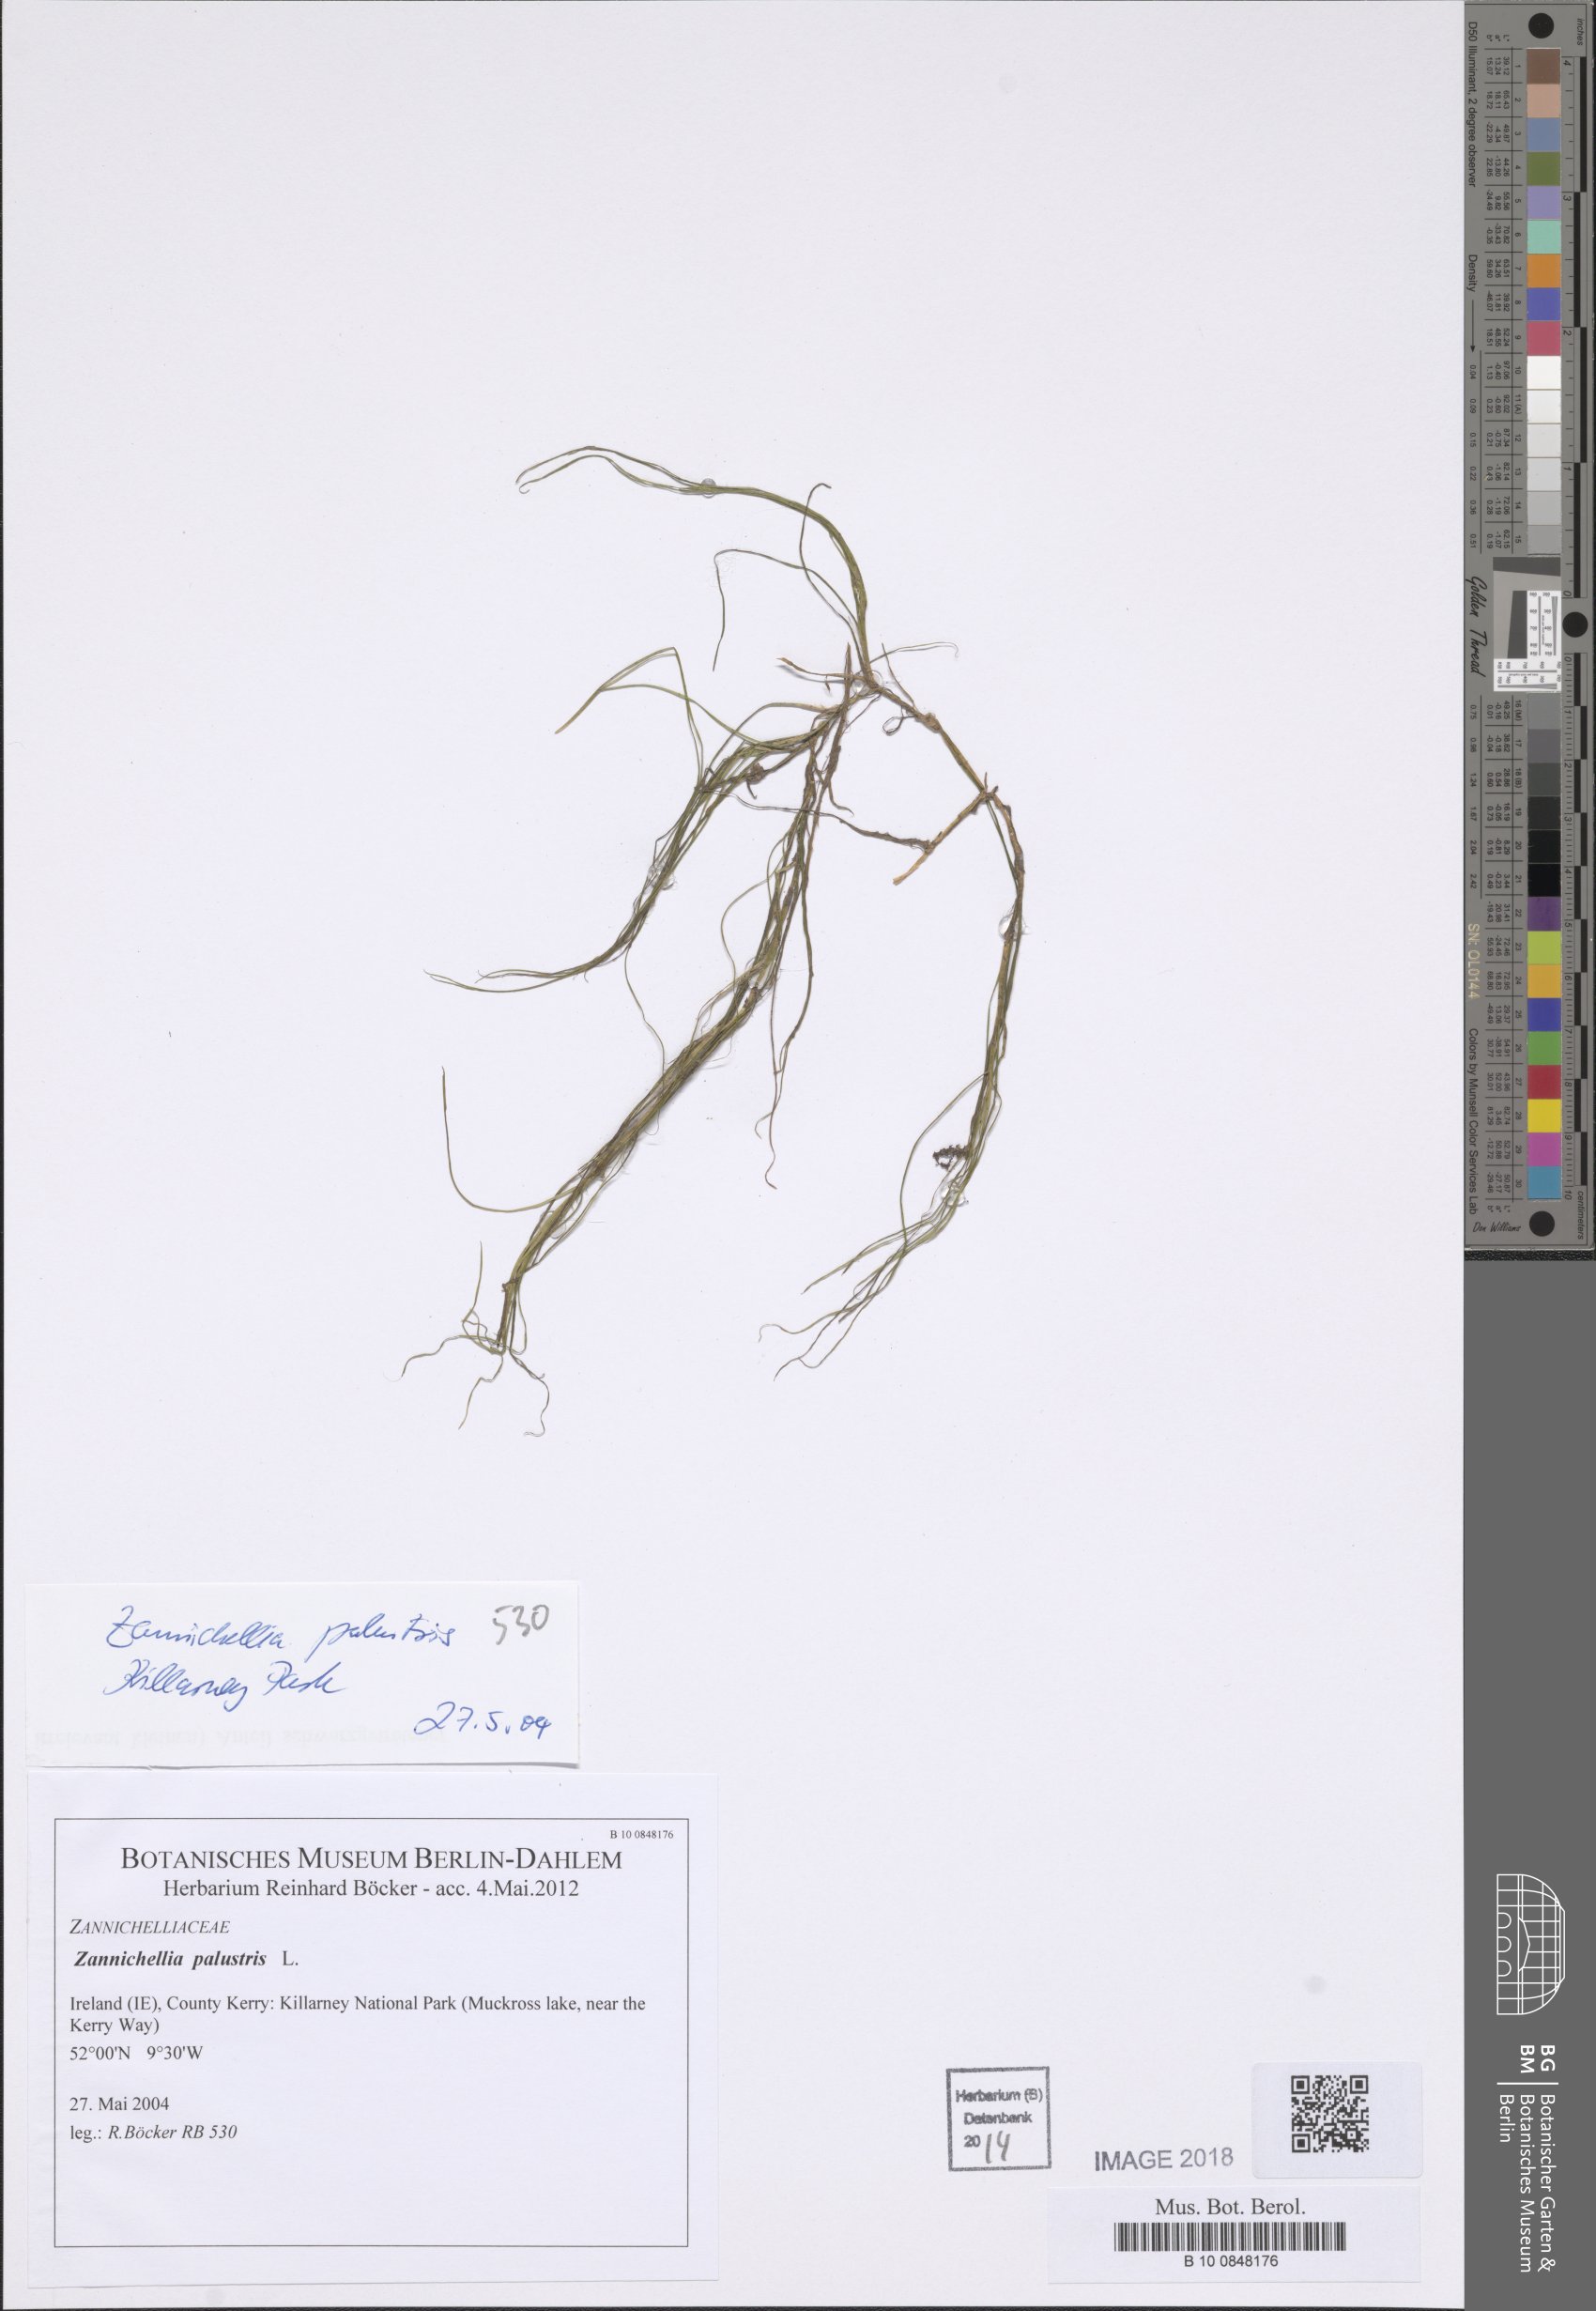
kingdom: Plantae
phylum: Tracheophyta
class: Liliopsida
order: Alismatales
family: Potamogetonaceae
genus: Zannichellia
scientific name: Zannichellia palustris
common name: Horned pondweed
